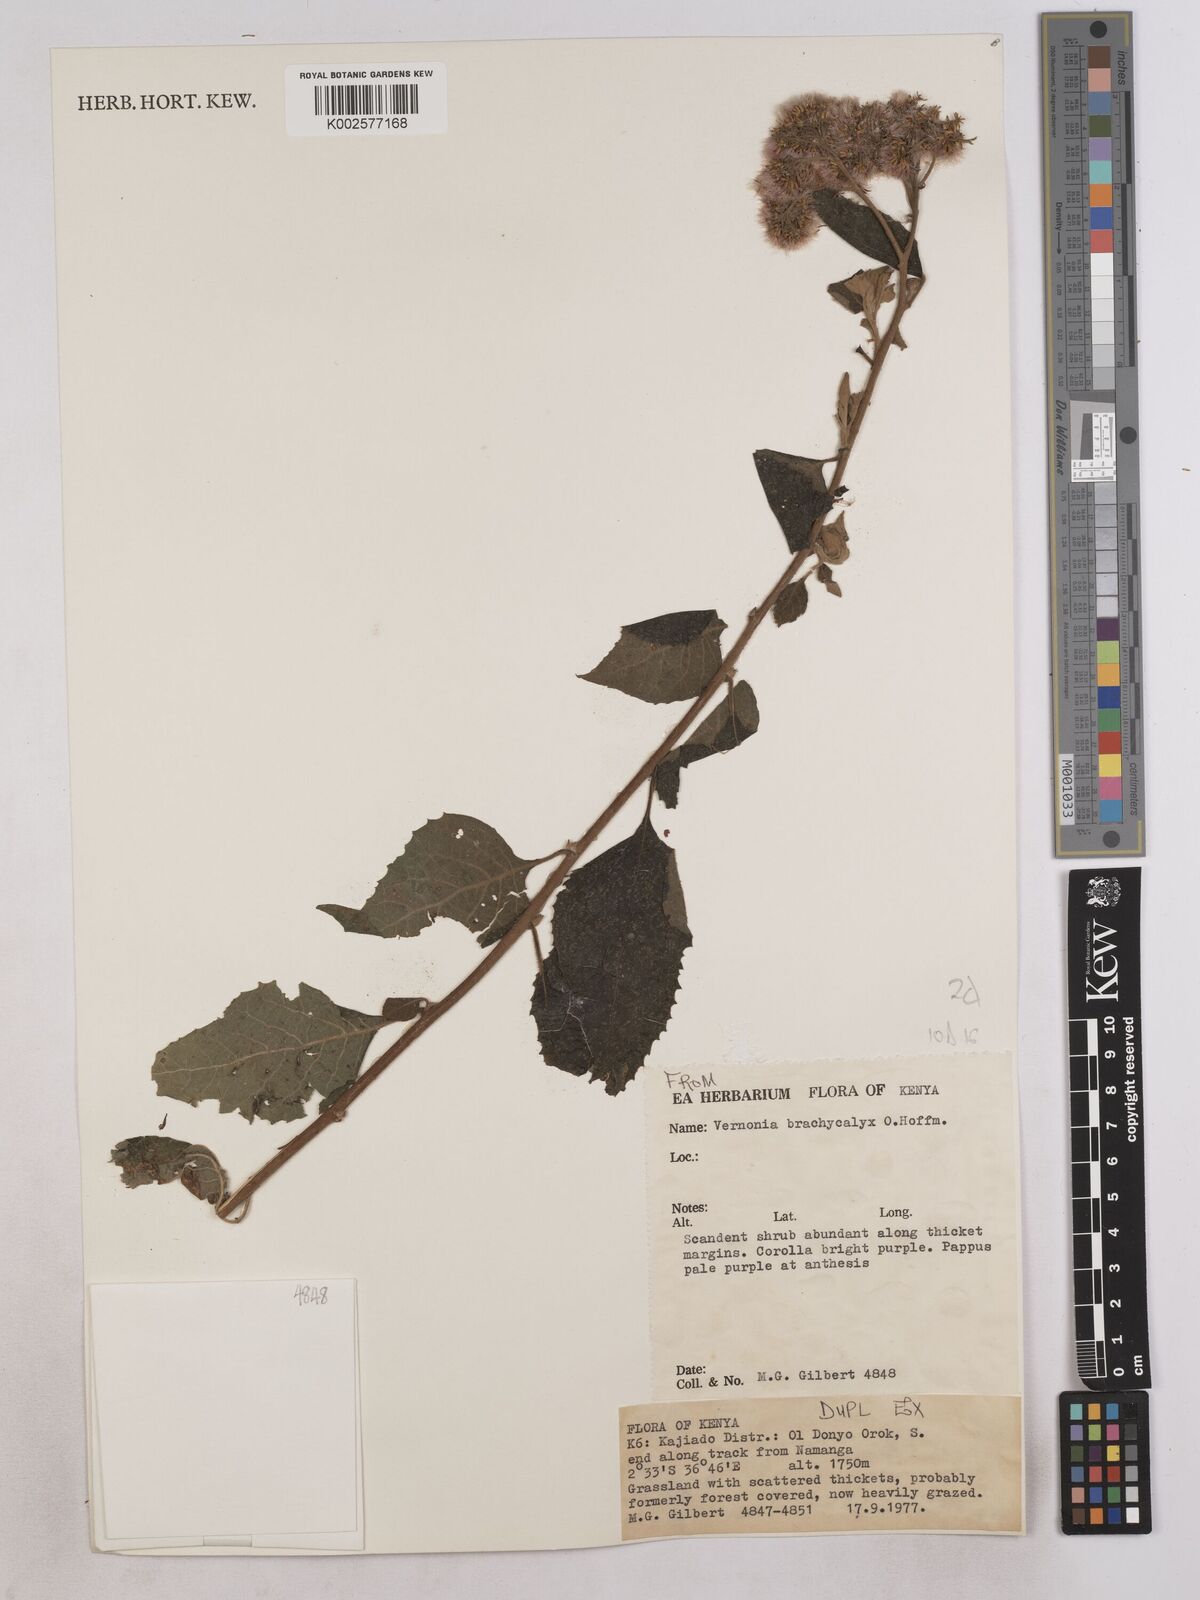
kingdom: Plantae
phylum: Tracheophyta
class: Magnoliopsida
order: Asterales
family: Asteraceae
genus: Hoffmannanthus
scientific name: Hoffmannanthus abbotianus
